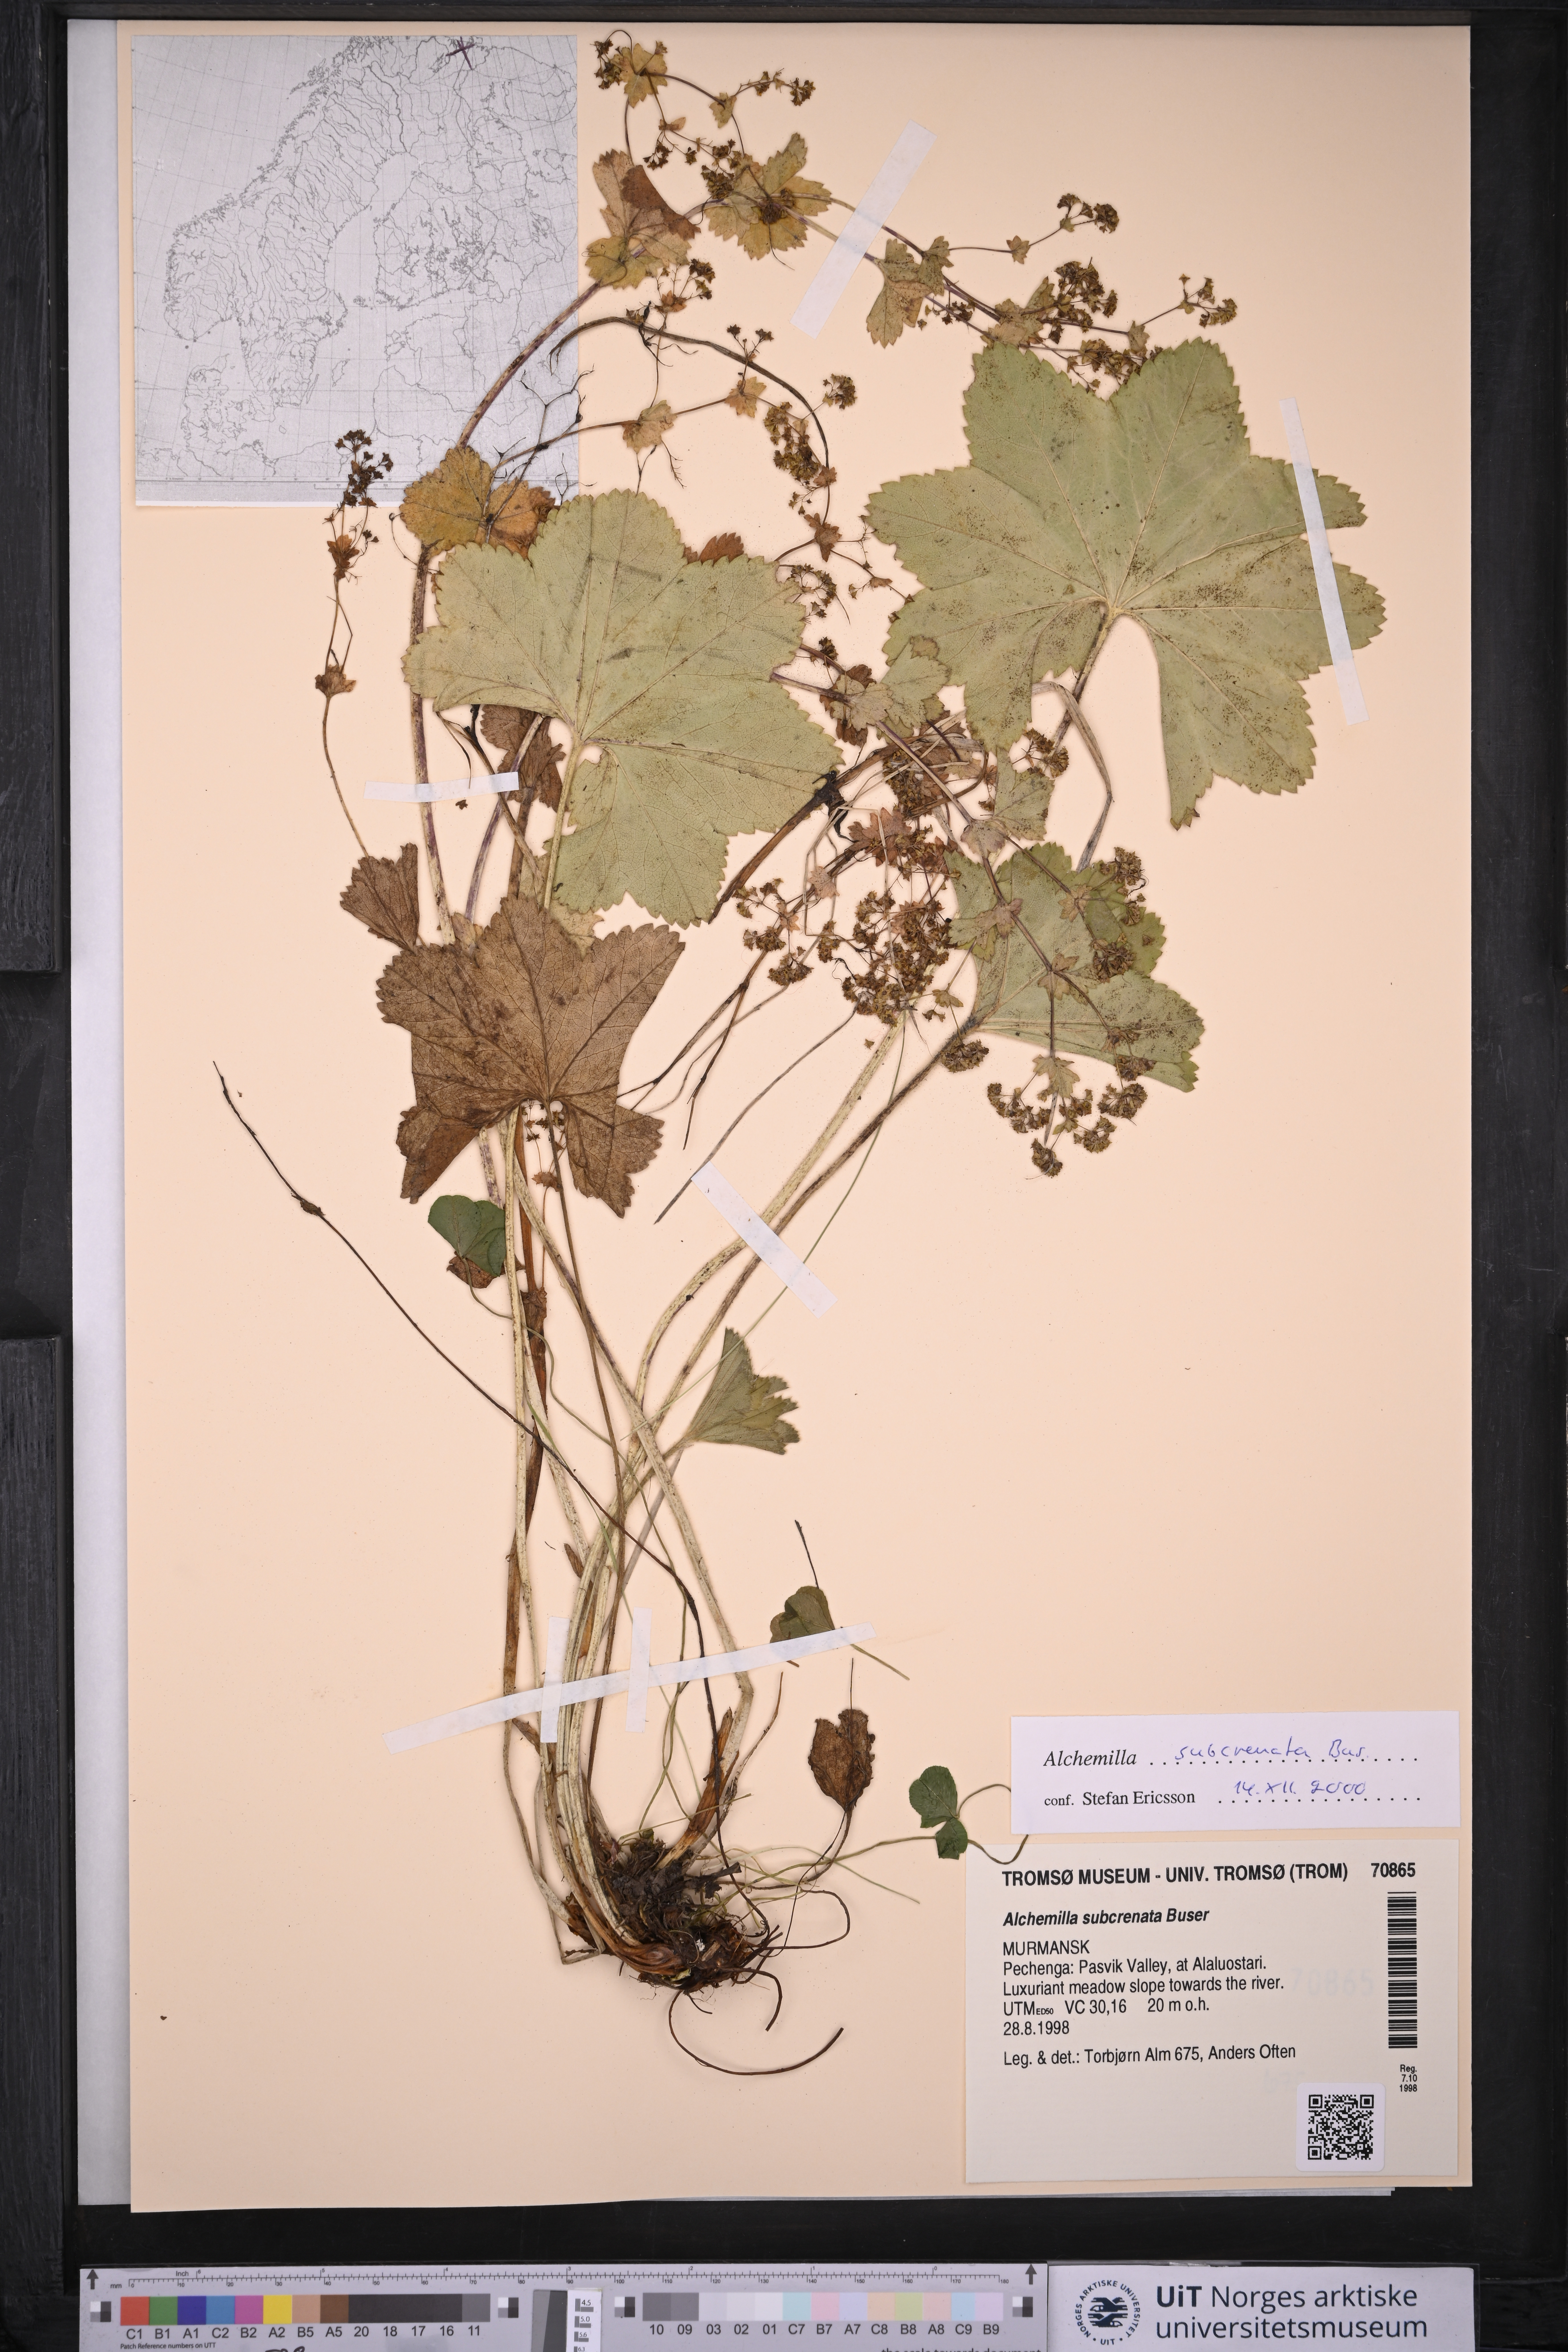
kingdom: Plantae
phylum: Tracheophyta
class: Magnoliopsida
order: Rosales
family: Rosaceae
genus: Alchemilla
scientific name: Alchemilla subcrenata
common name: Broadtooth lady's mantle
